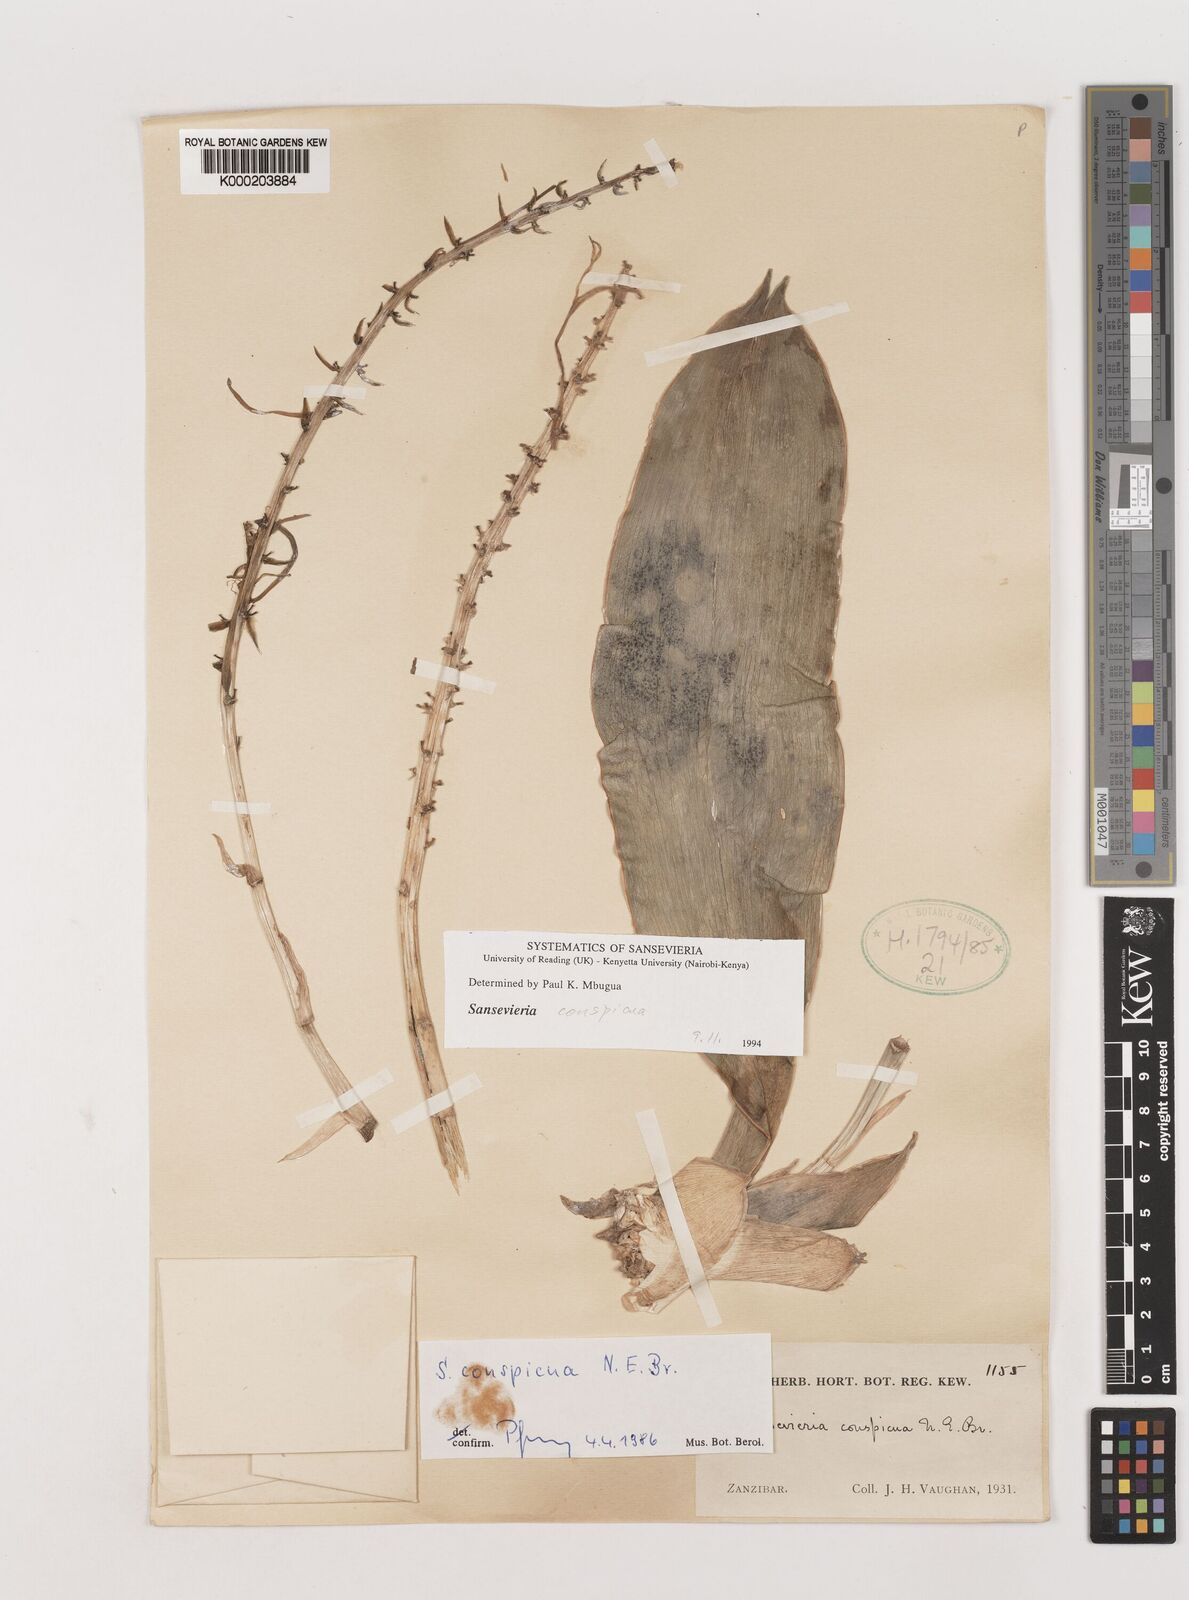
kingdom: Plantae
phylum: Tracheophyta
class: Liliopsida
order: Asparagales
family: Asparagaceae
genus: Dracaena
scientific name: Dracaena conspicua
